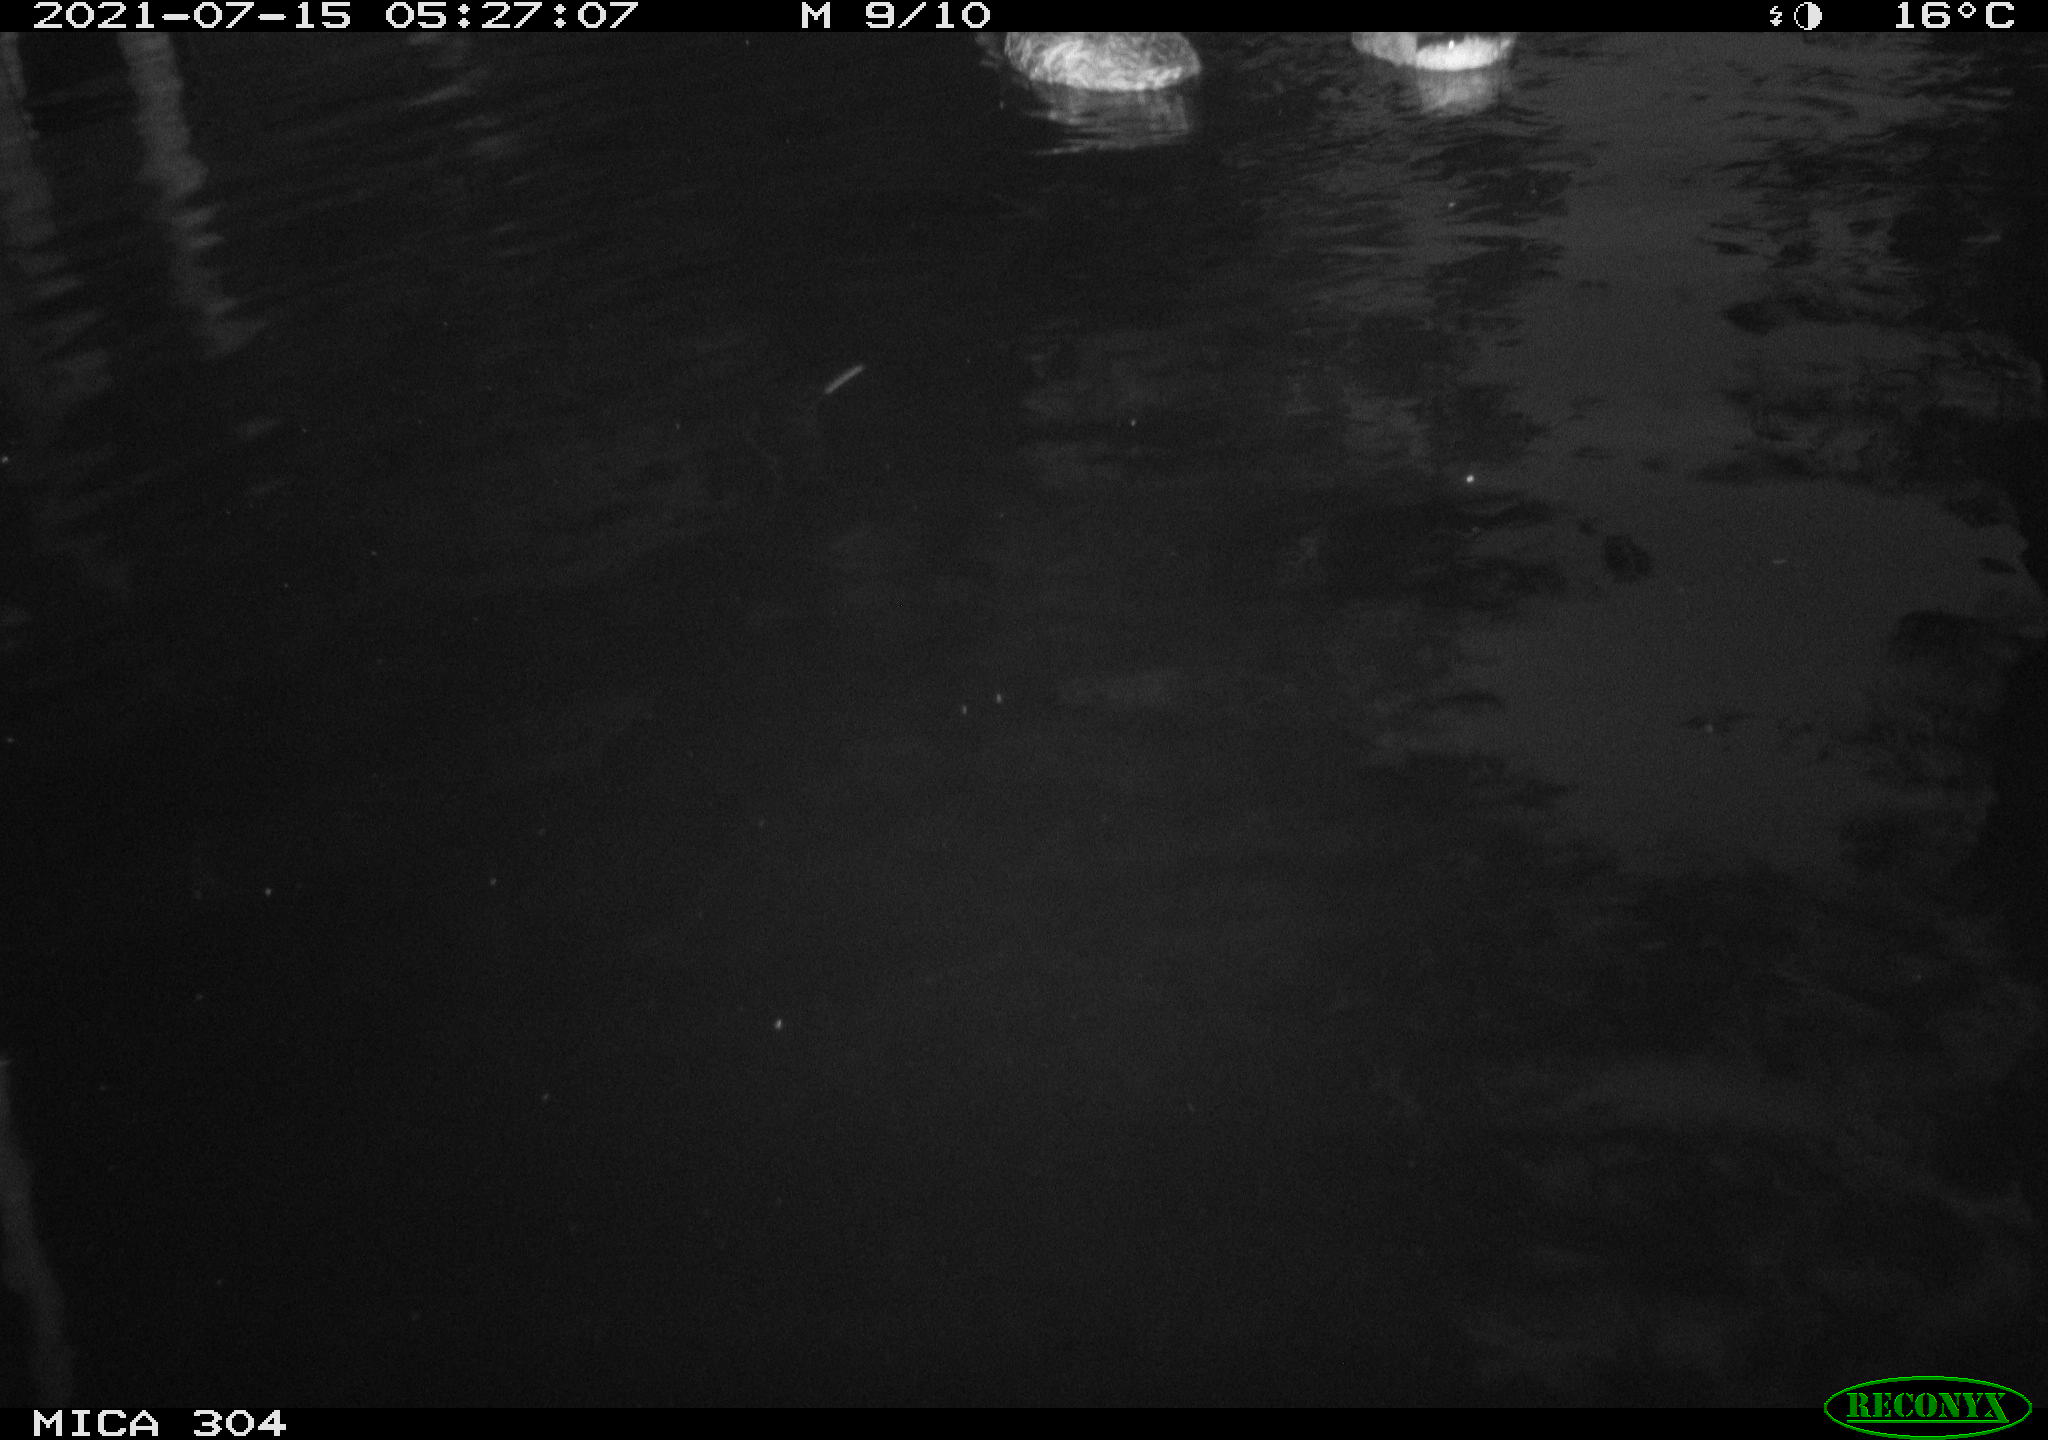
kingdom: Animalia
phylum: Chordata
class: Aves
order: Anseriformes
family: Anatidae
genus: Anas
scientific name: Anas platyrhynchos
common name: Mallard
